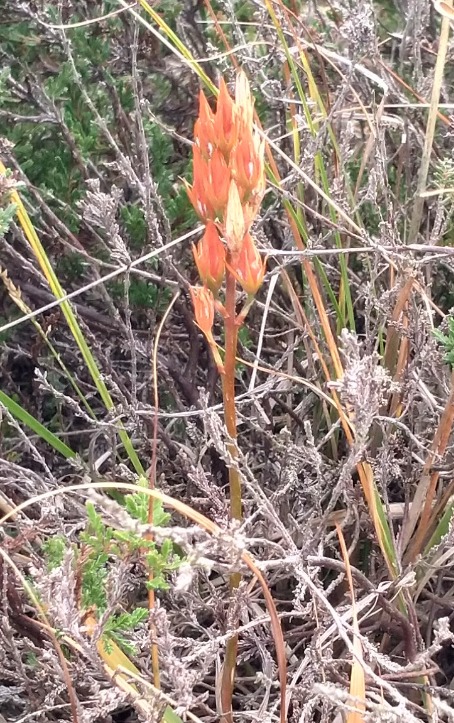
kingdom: Plantae
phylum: Tracheophyta
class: Liliopsida
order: Dioscoreales
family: Nartheciaceae
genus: Narthecium
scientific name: Narthecium ossifragum
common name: Benbræk
